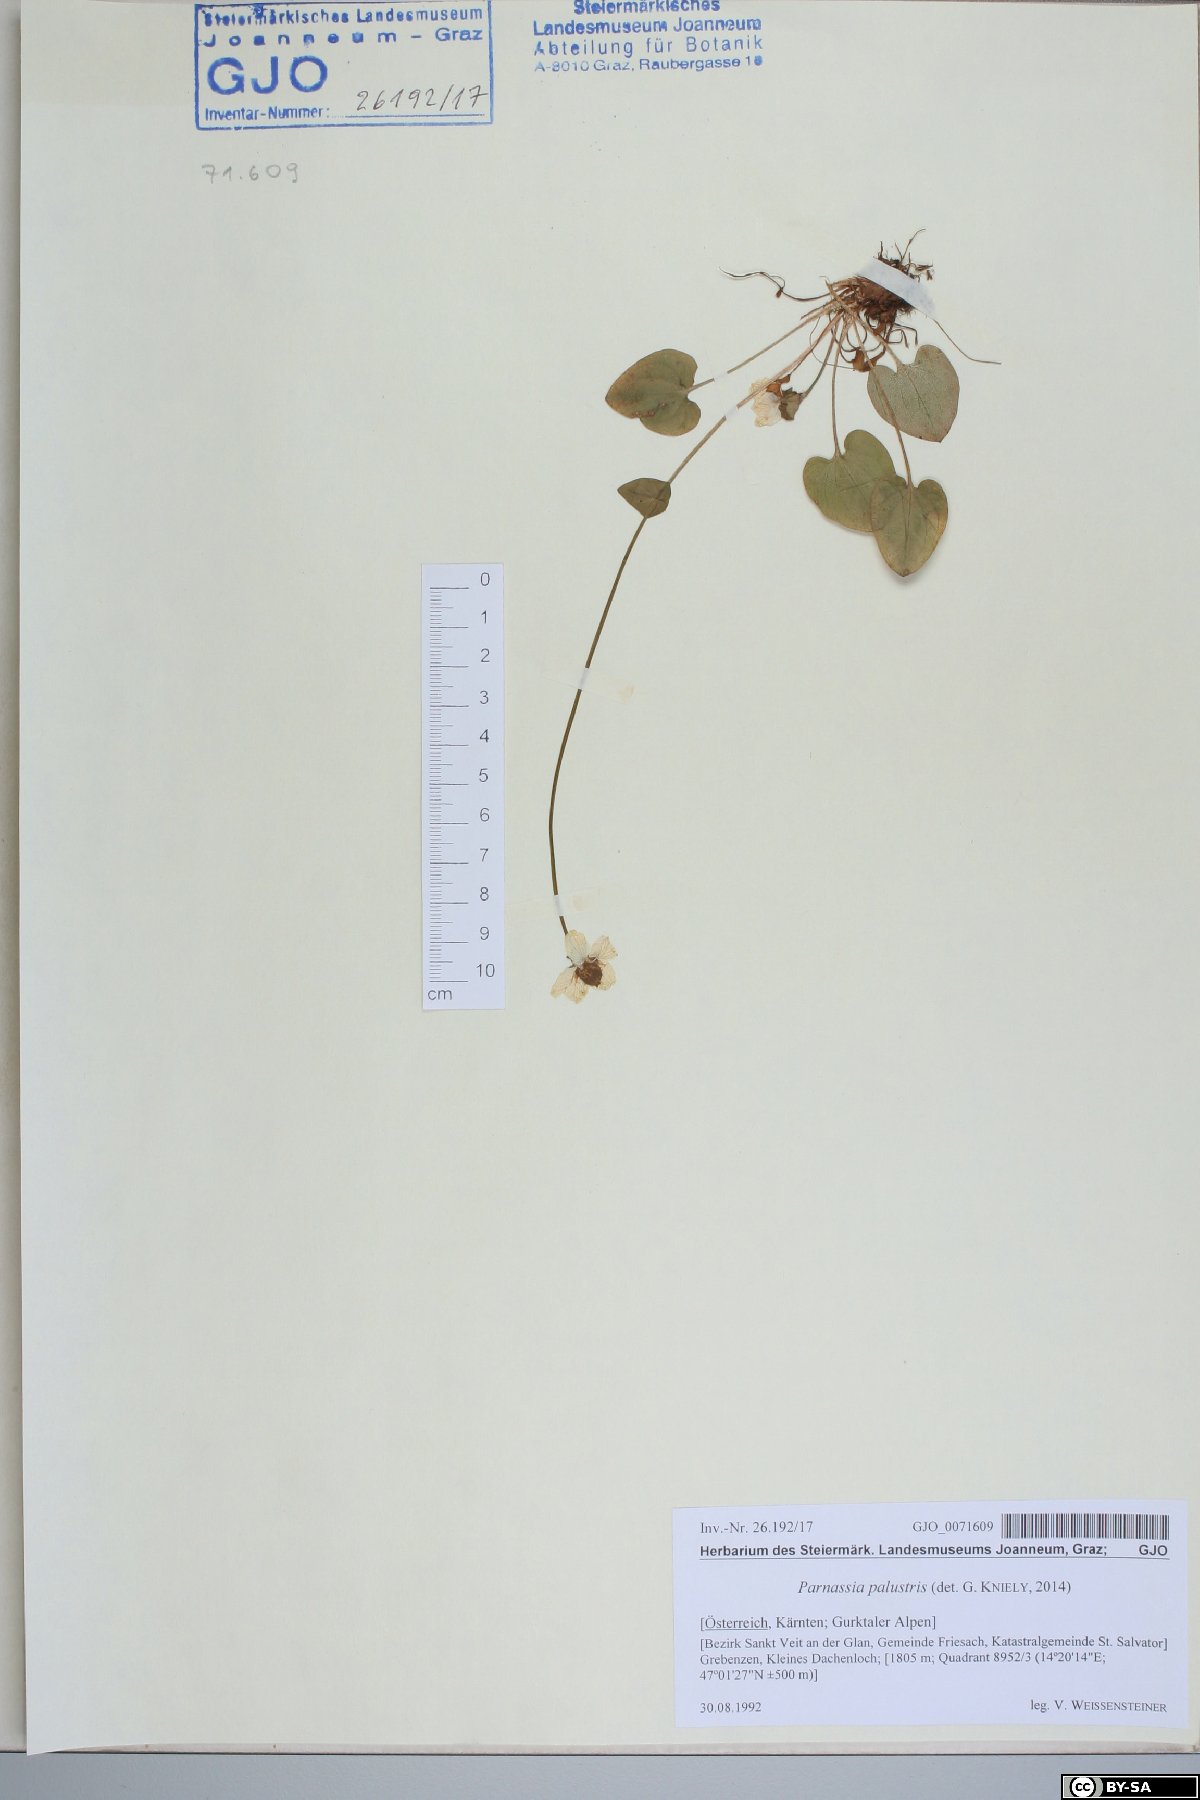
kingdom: Plantae
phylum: Tracheophyta
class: Magnoliopsida
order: Celastrales
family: Parnassiaceae
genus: Parnassia
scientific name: Parnassia palustris
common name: Grass-of-parnassus
